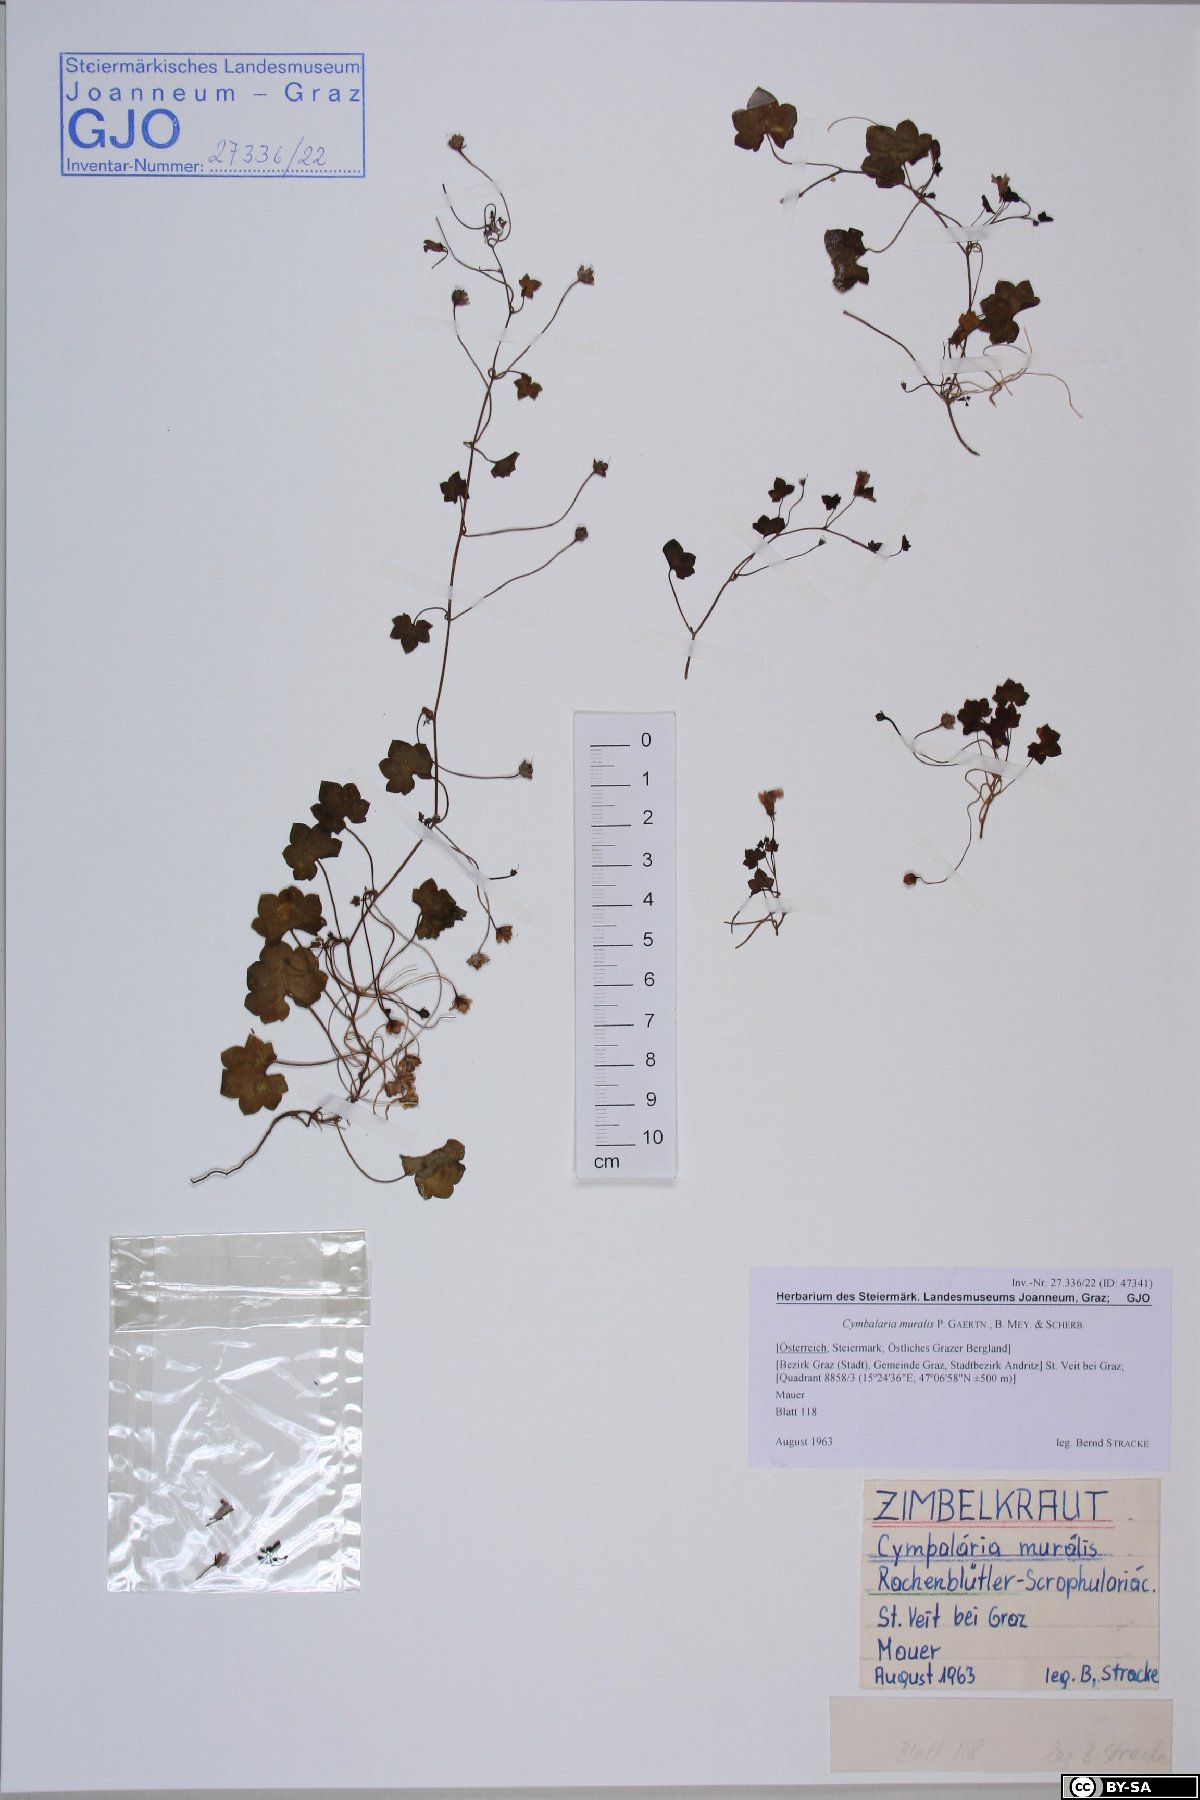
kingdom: Plantae
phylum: Tracheophyta
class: Magnoliopsida
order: Lamiales
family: Plantaginaceae
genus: Cymbalaria
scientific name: Cymbalaria muralis
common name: Ivy-leaved toadflax
